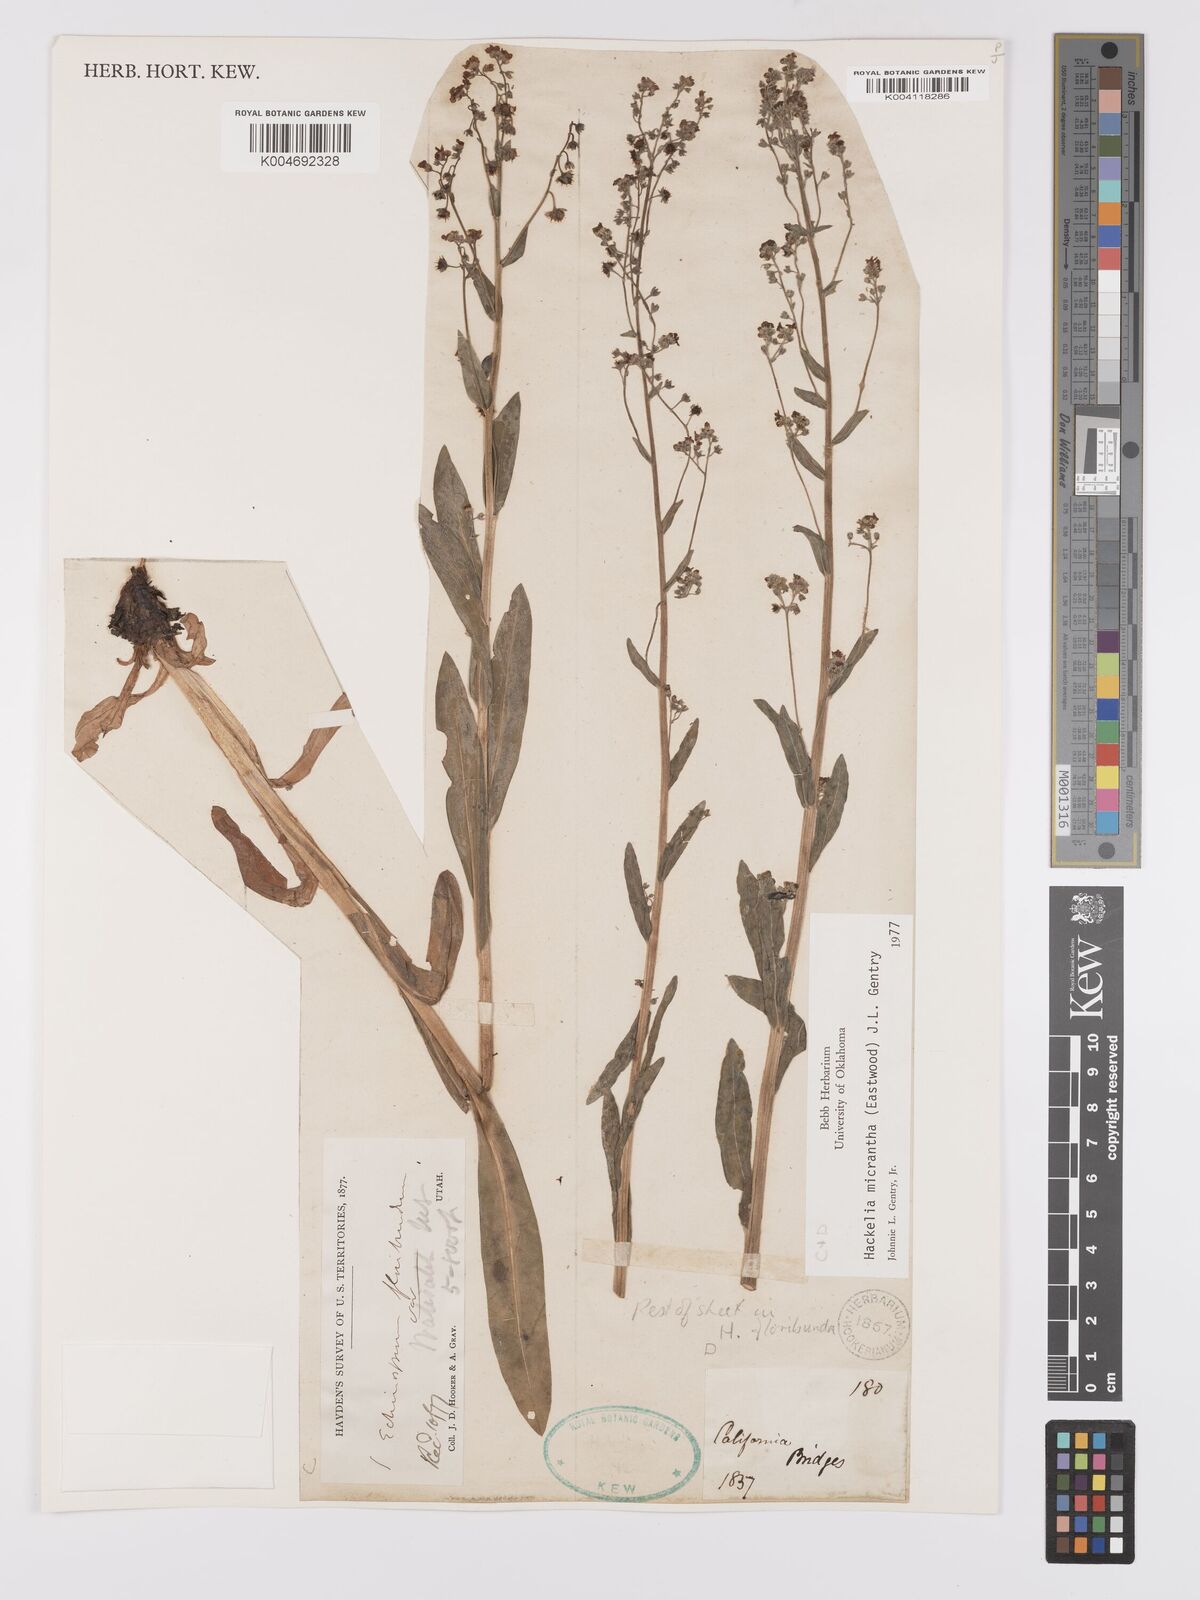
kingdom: Plantae
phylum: Tracheophyta
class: Magnoliopsida
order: Boraginales
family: Boraginaceae
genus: Hackelia
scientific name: Hackelia micrantha
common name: Meadow stickseed
